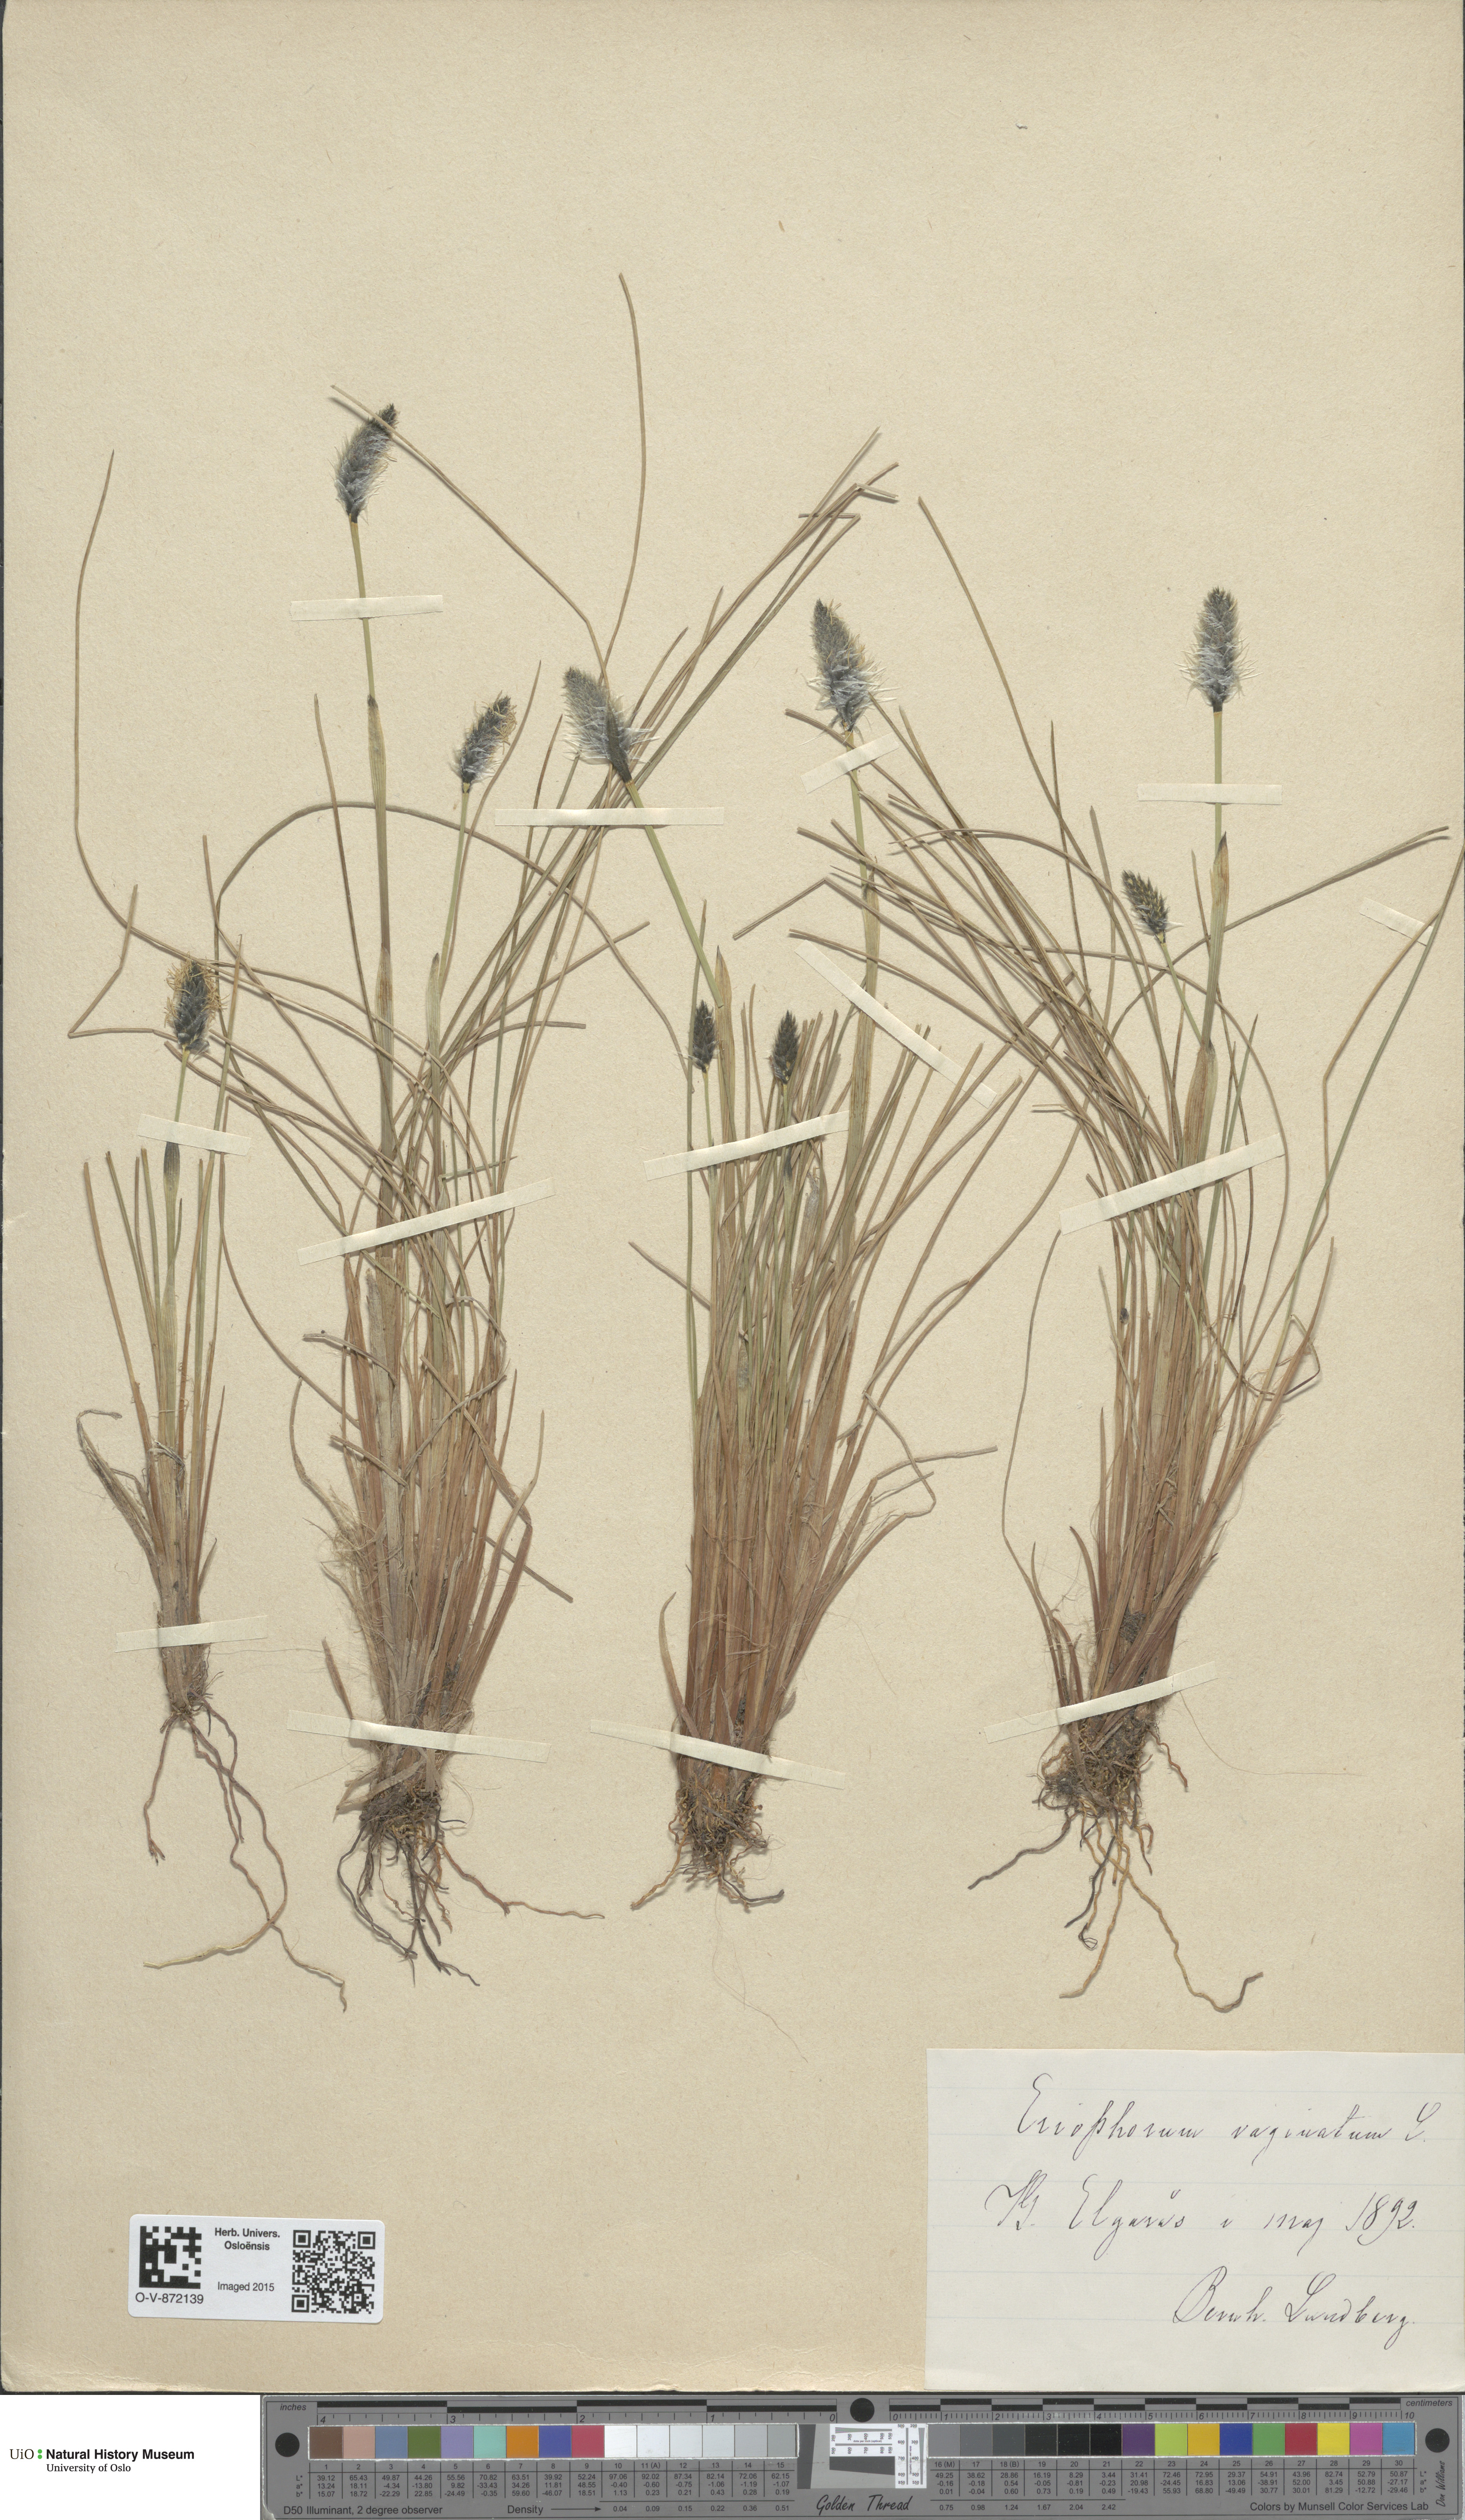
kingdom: Plantae
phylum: Tracheophyta
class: Liliopsida
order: Poales
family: Cyperaceae
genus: Eriophorum
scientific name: Eriophorum vaginatum
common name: Hare's-tail cottongrass
